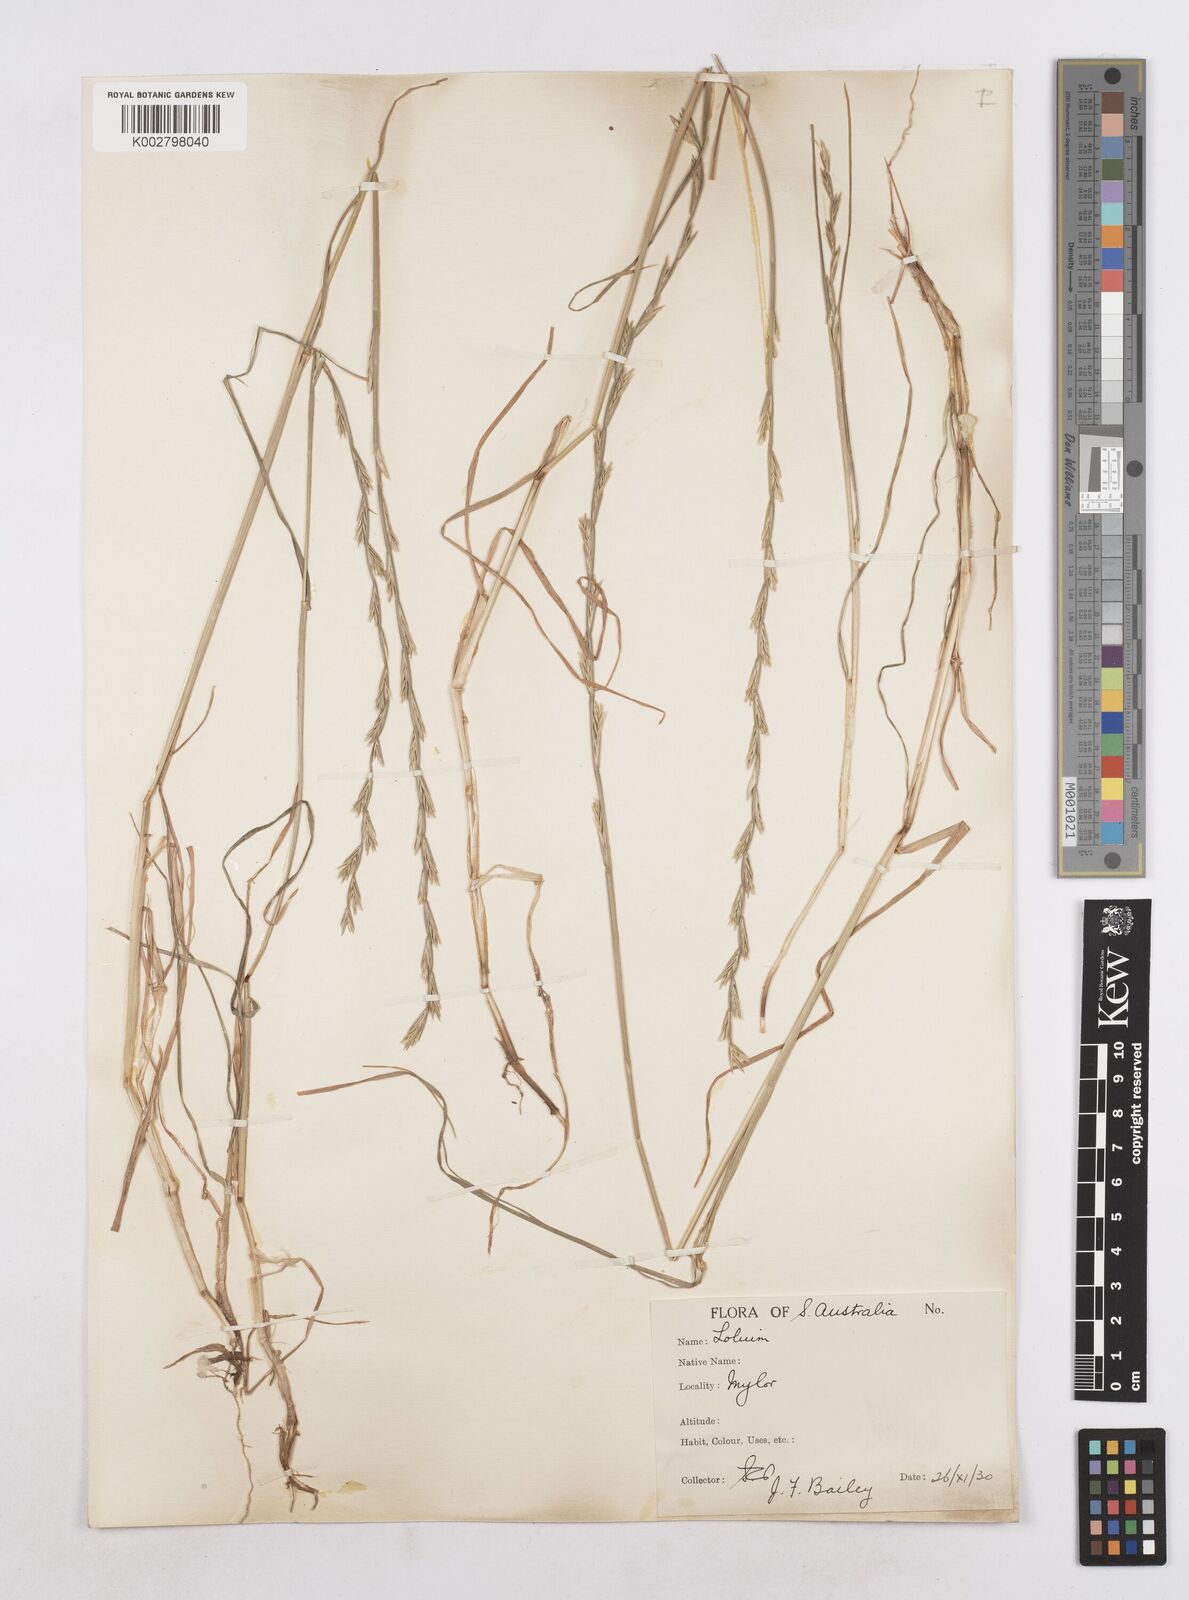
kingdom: Plantae
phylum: Tracheophyta
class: Liliopsida
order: Poales
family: Poaceae
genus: Lolium
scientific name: Lolium perenne
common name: Perennial ryegrass
